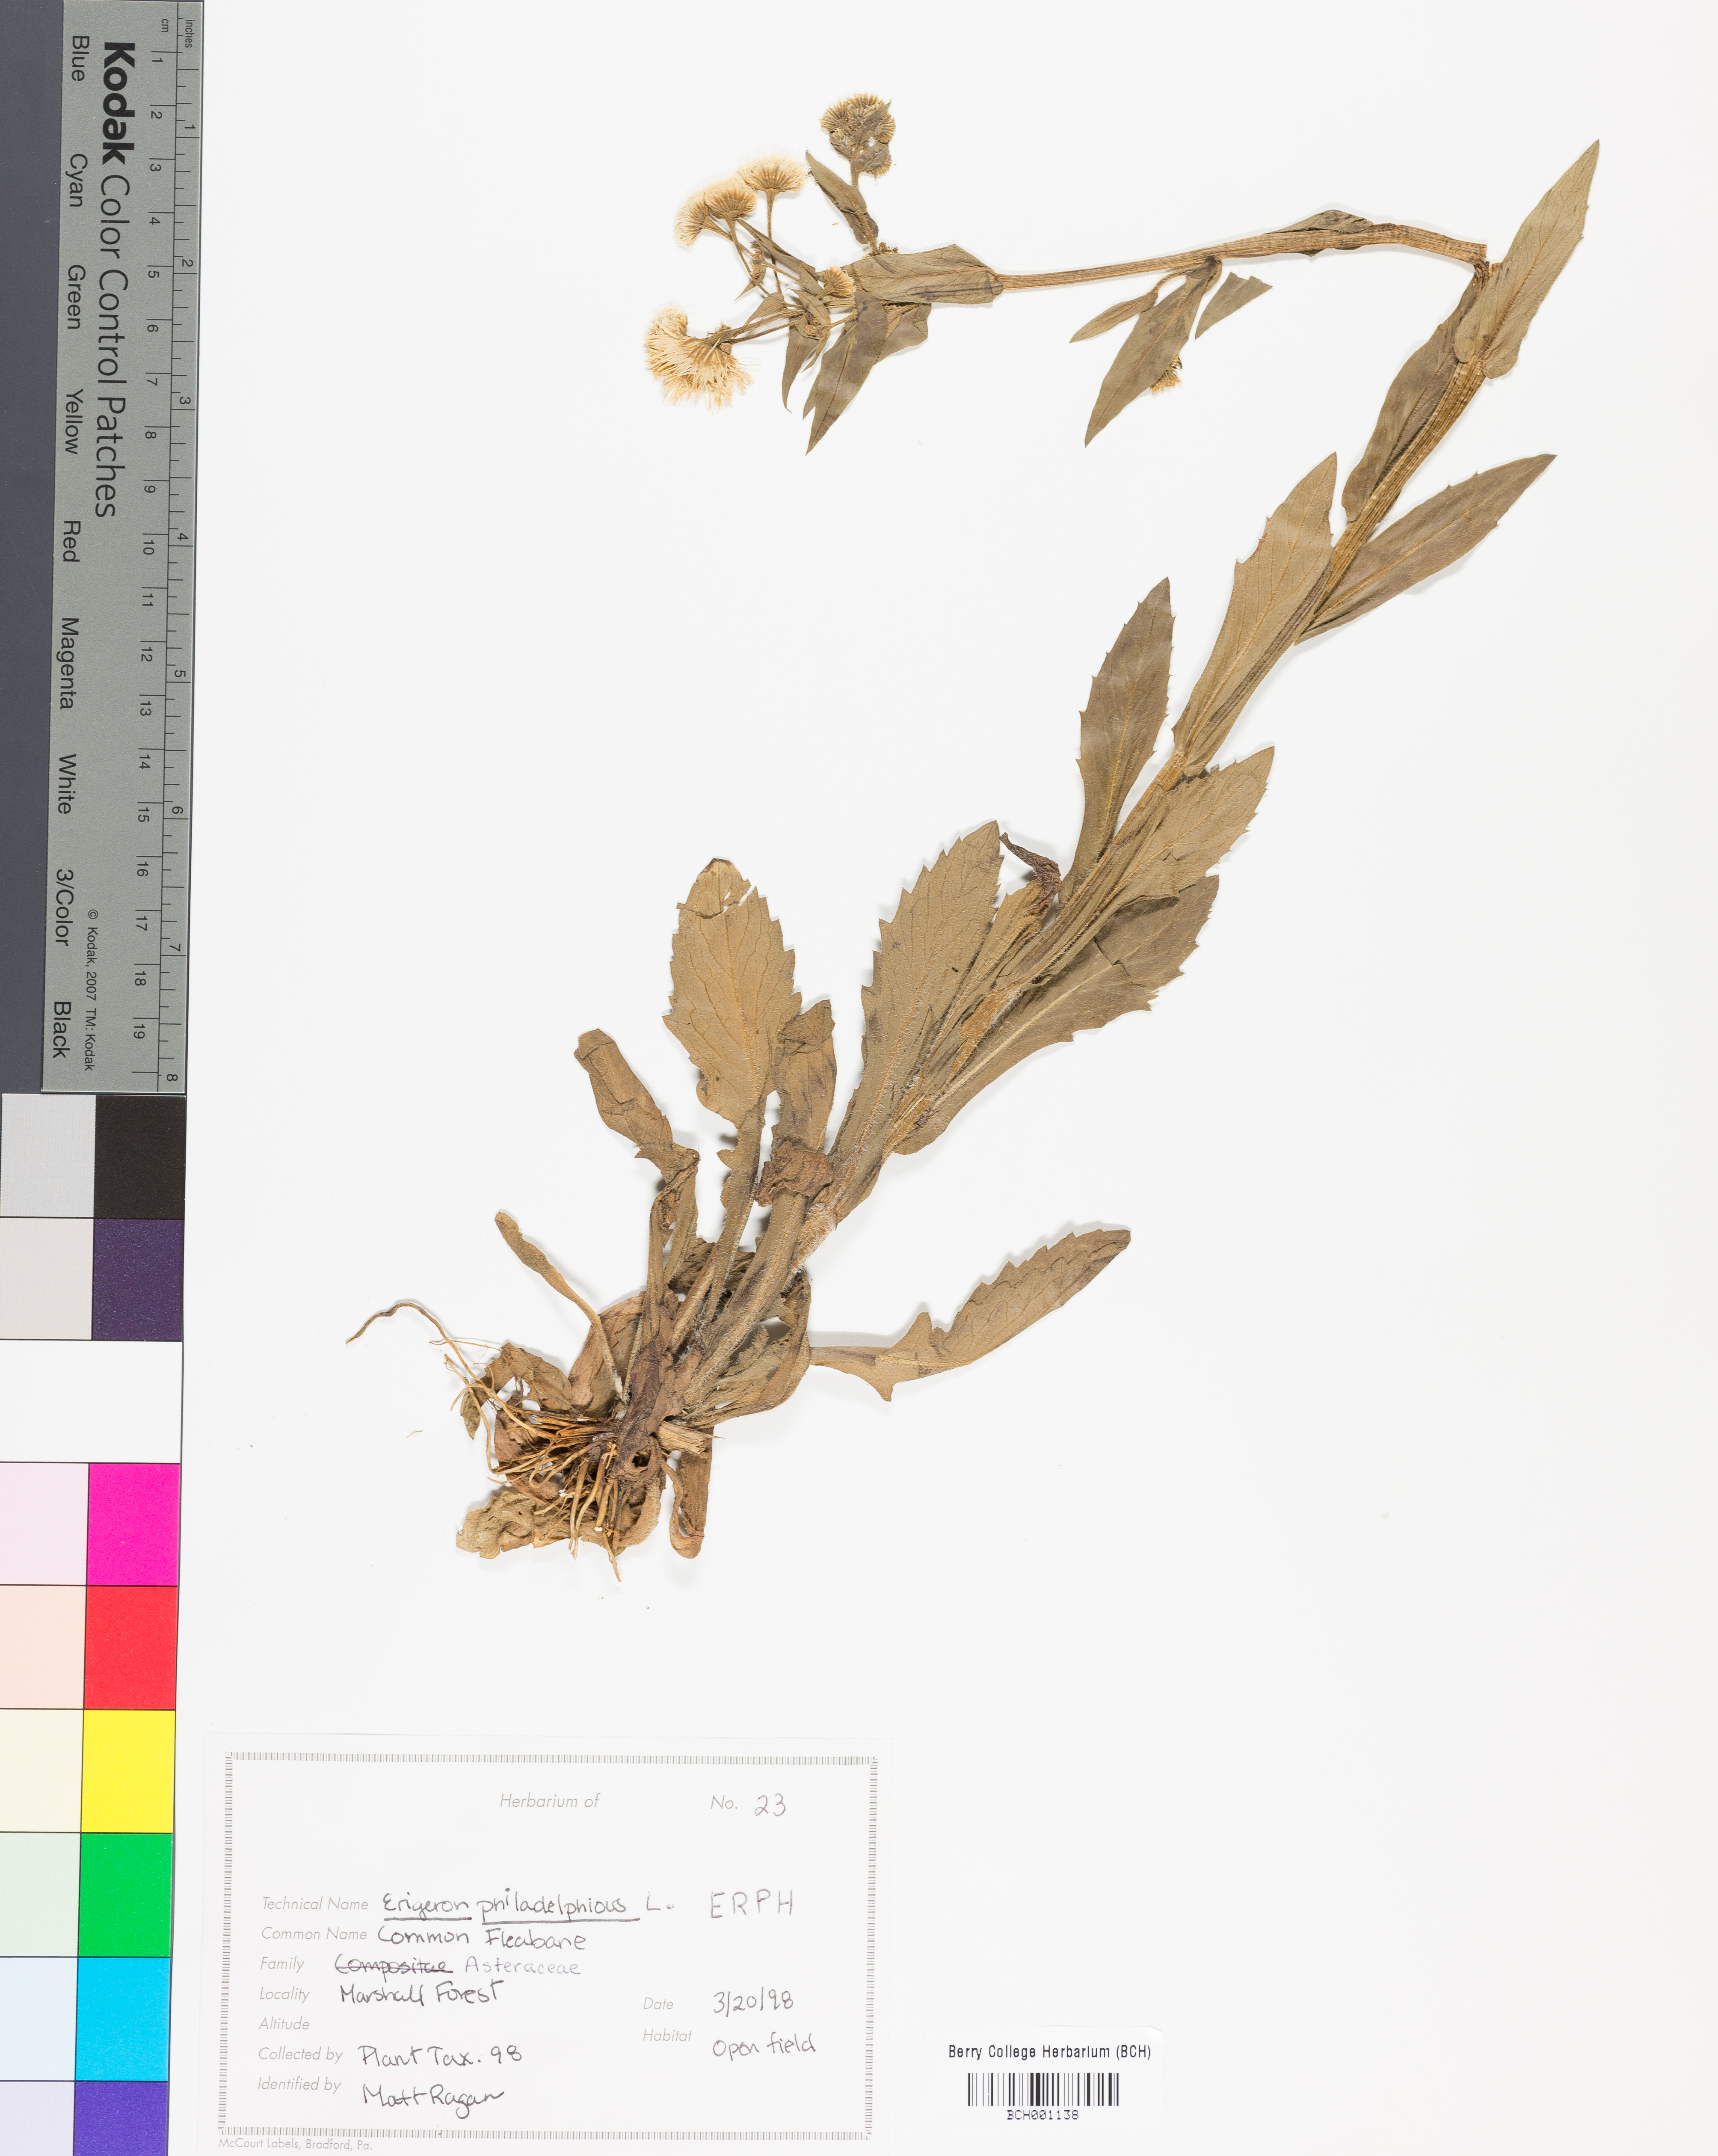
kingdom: Plantae
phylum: Tracheophyta
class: Magnoliopsida
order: Asterales
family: Asteraceae
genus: Erigeron
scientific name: Erigeron philadelphicus
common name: Robin's-plantain
